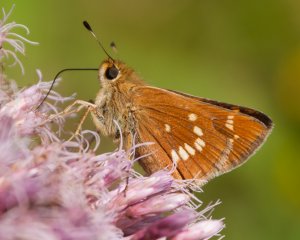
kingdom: Animalia
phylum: Arthropoda
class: Insecta
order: Lepidoptera
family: Hesperiidae
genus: Hesperia
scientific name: Hesperia leonardus
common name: Leonard's Skipper
